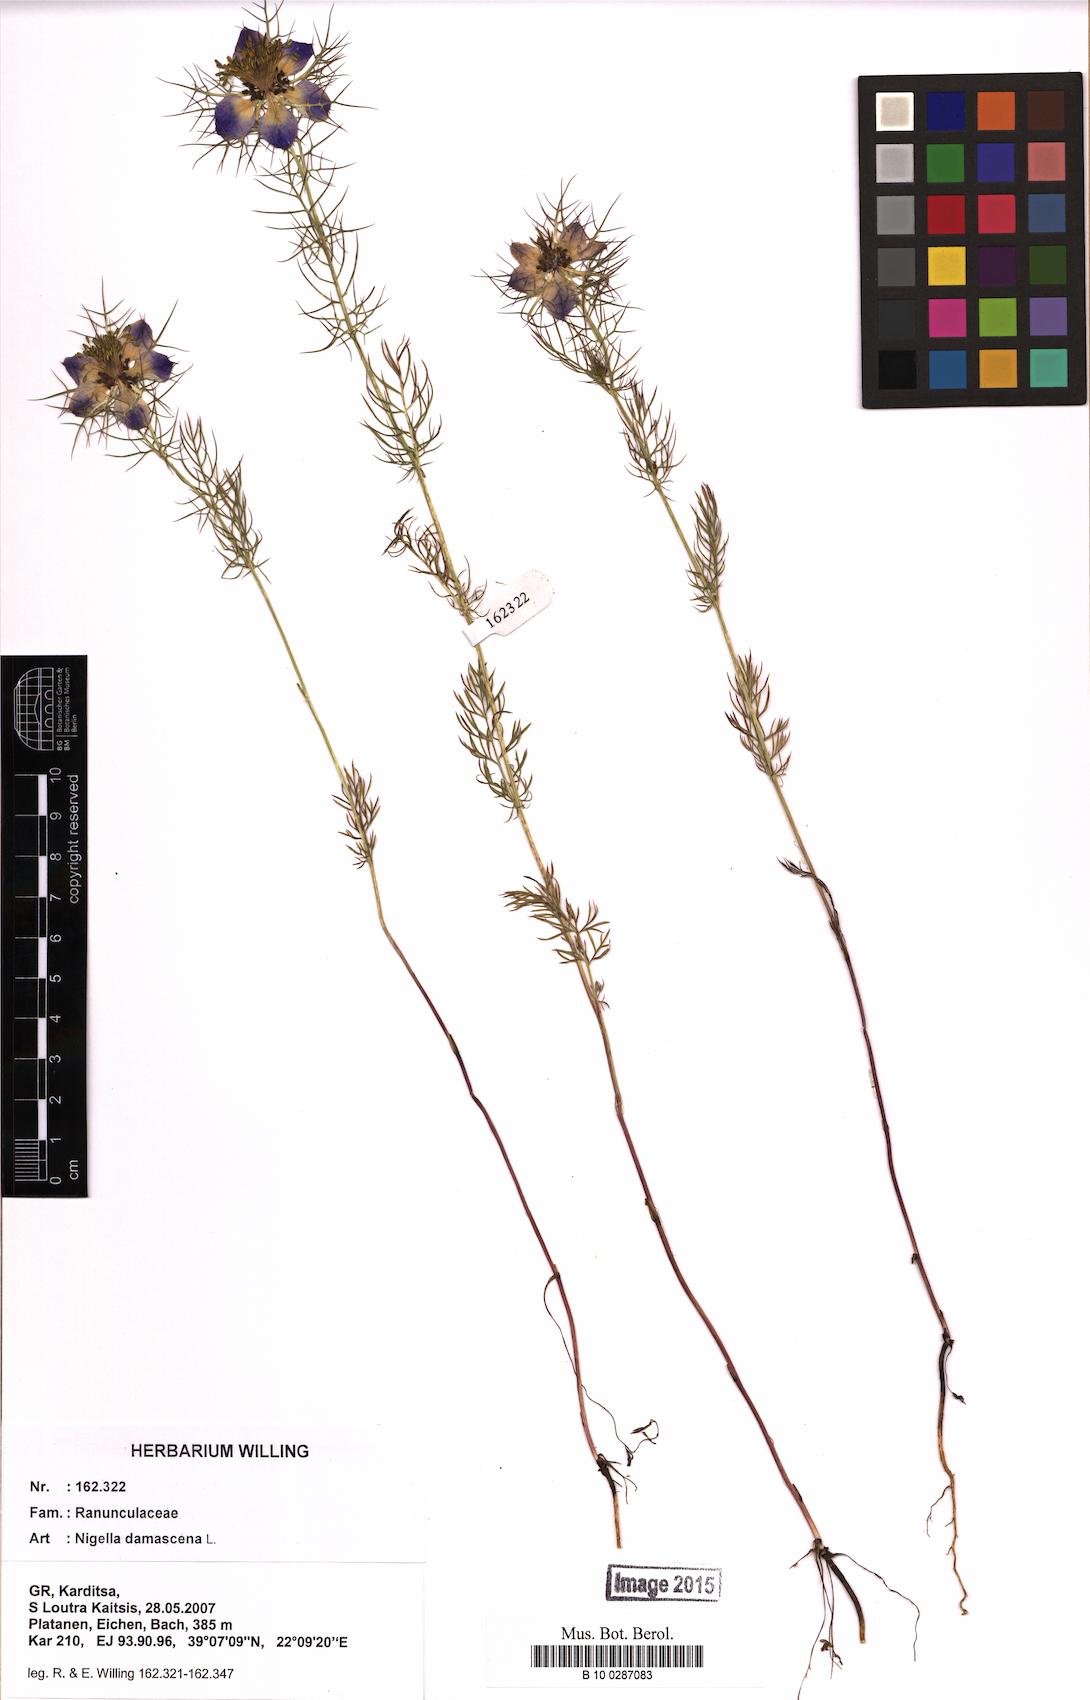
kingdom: Plantae
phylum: Tracheophyta
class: Magnoliopsida
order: Ranunculales
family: Ranunculaceae
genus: Nigella
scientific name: Nigella damascena
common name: Love-in-a-mist
